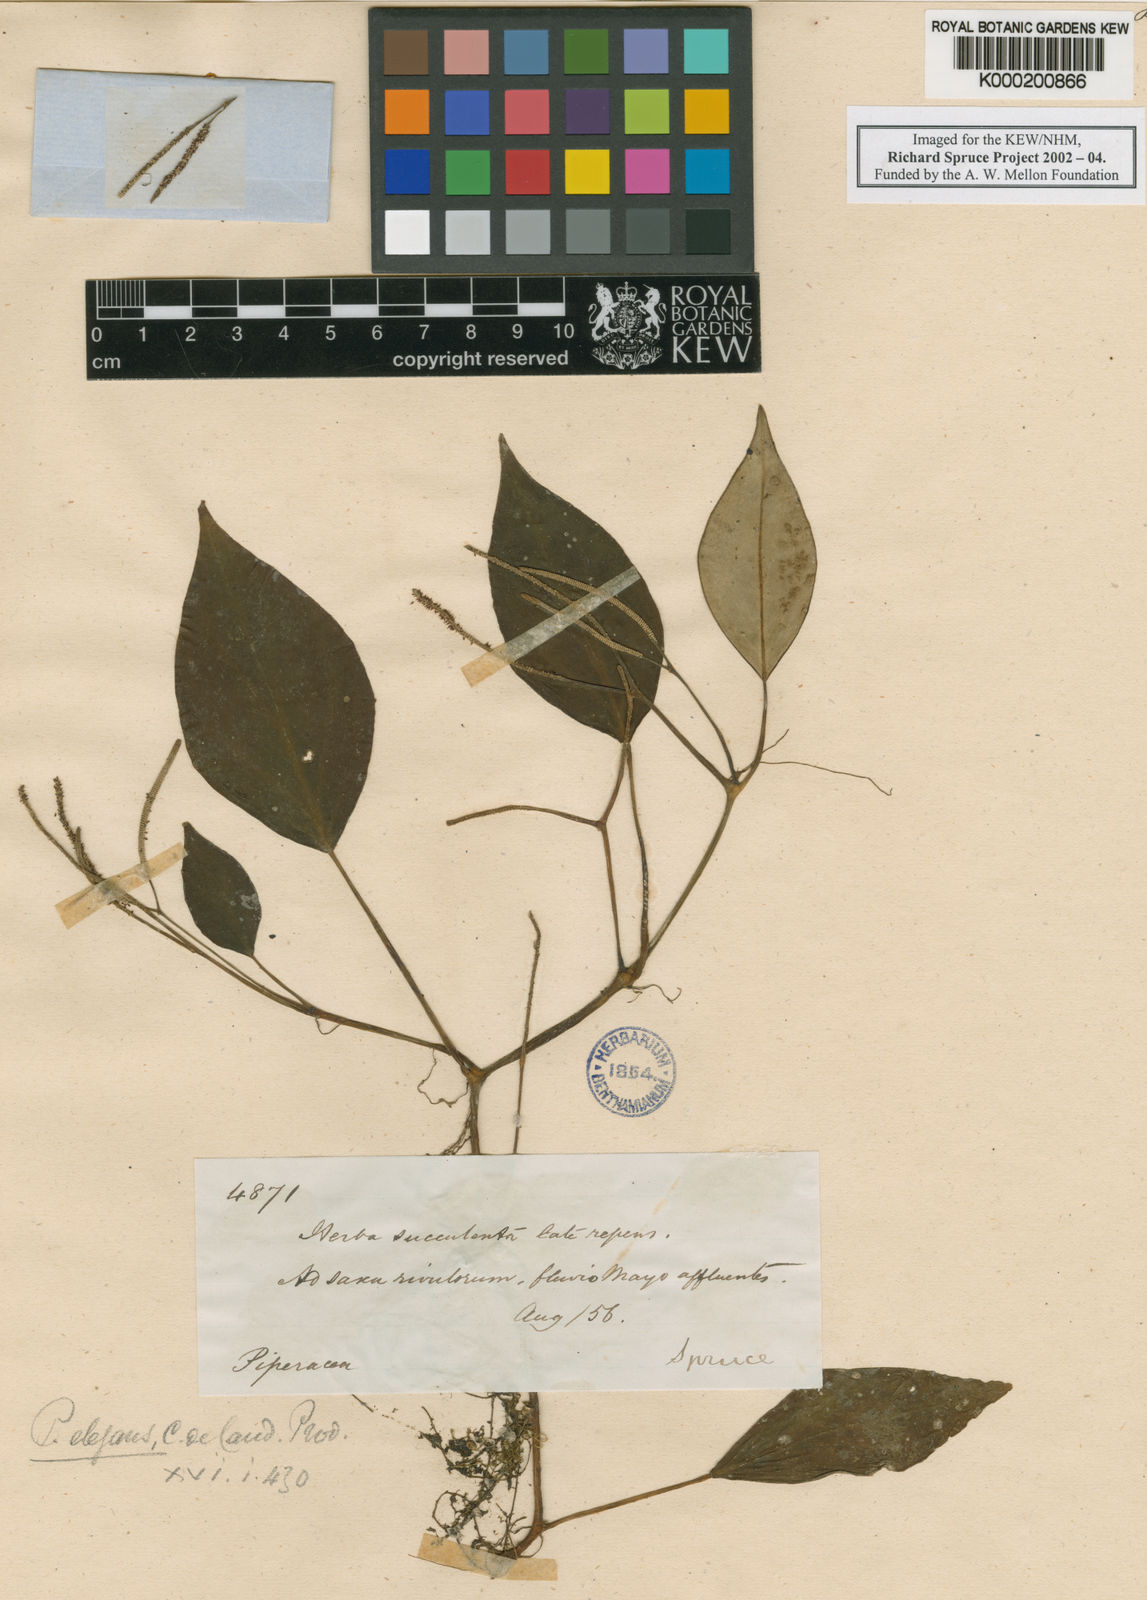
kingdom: Plantae
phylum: Tracheophyta
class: Magnoliopsida
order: Piperales
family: Piperaceae
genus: Peperomia
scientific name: Peperomia distachyos
